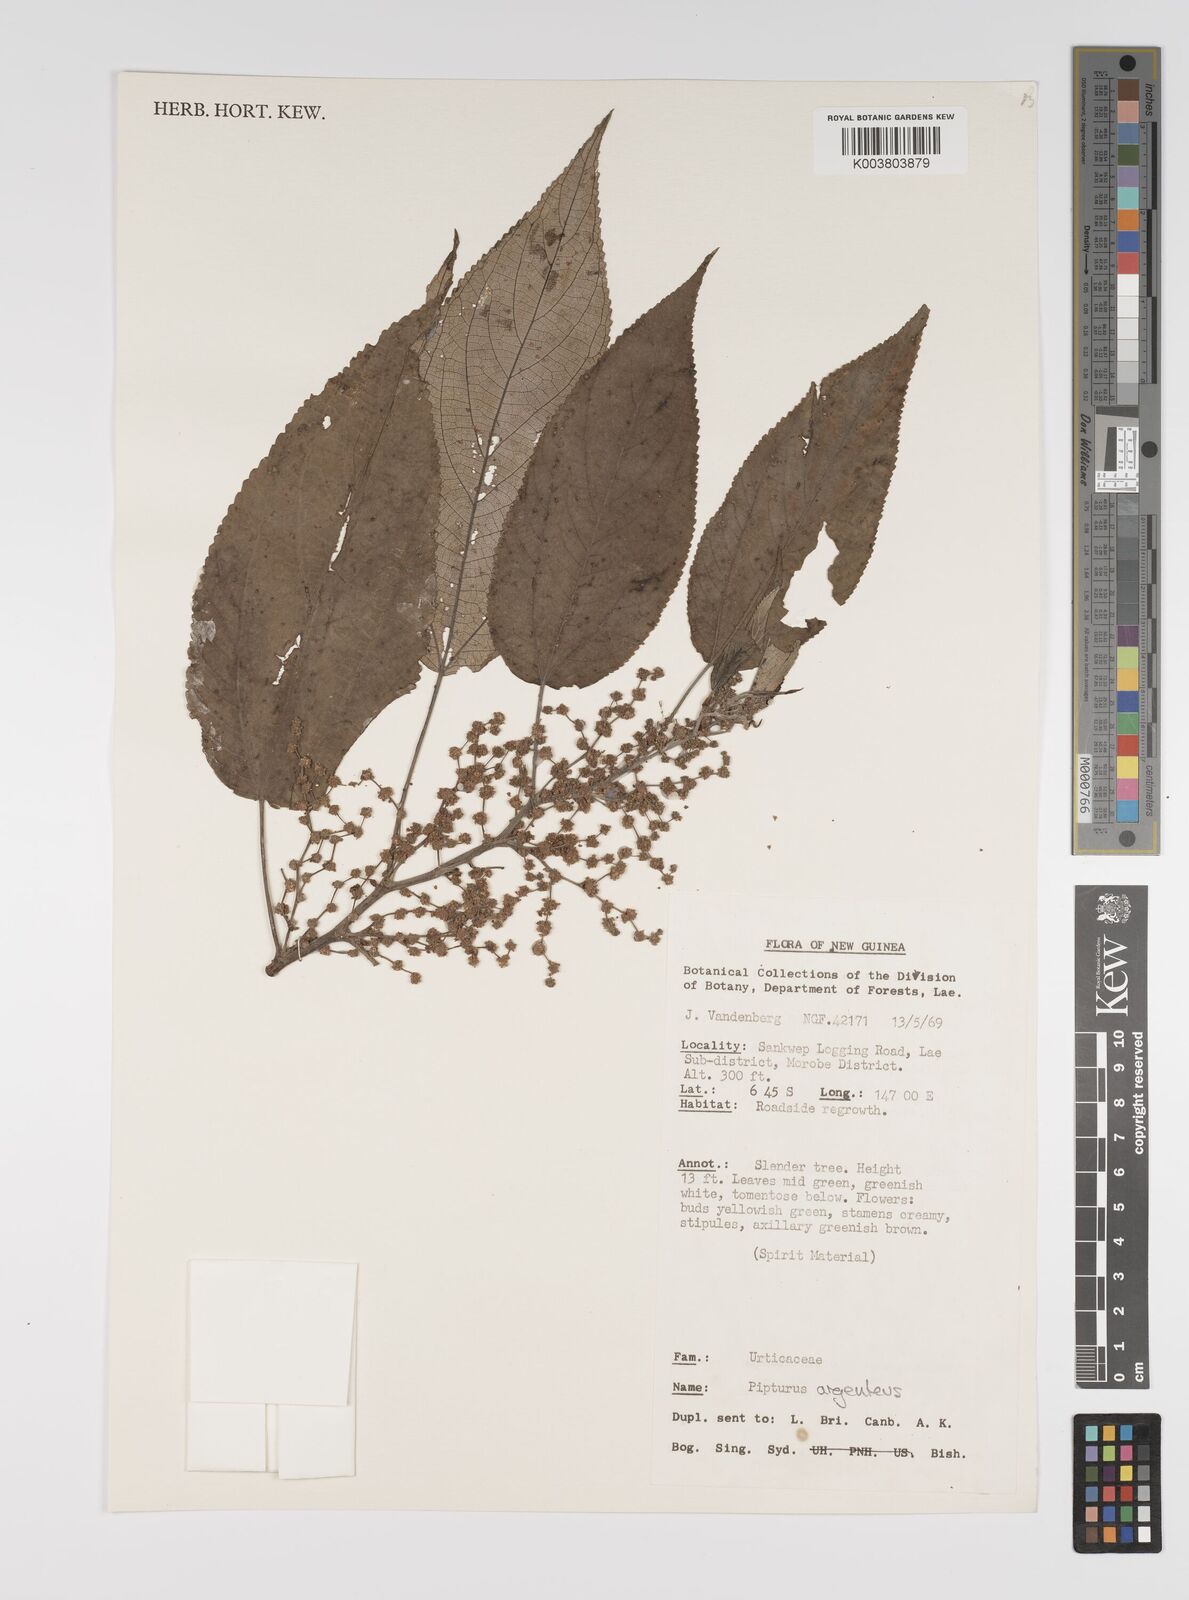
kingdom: Plantae
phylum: Tracheophyta
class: Magnoliopsida
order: Rosales
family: Urticaceae
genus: Pipturus
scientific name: Pipturus argenteus
